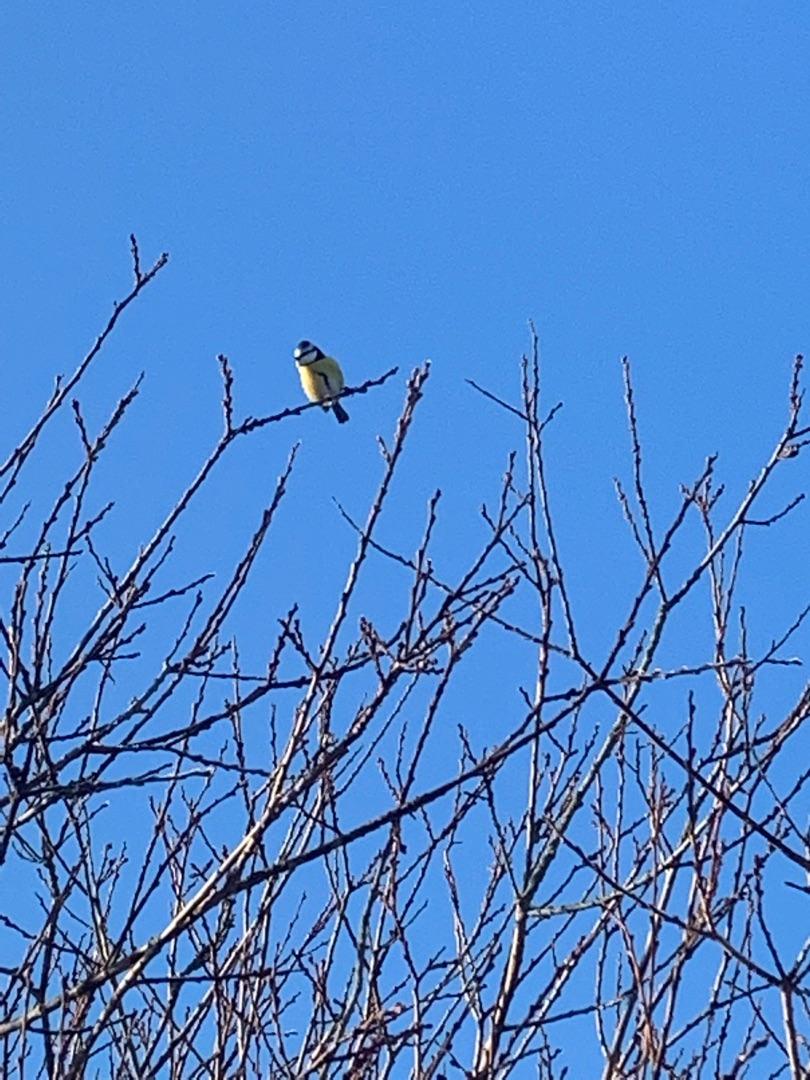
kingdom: Animalia
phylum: Chordata
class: Aves
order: Passeriformes
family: Paridae
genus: Cyanistes
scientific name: Cyanistes caeruleus
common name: Blåmejse
